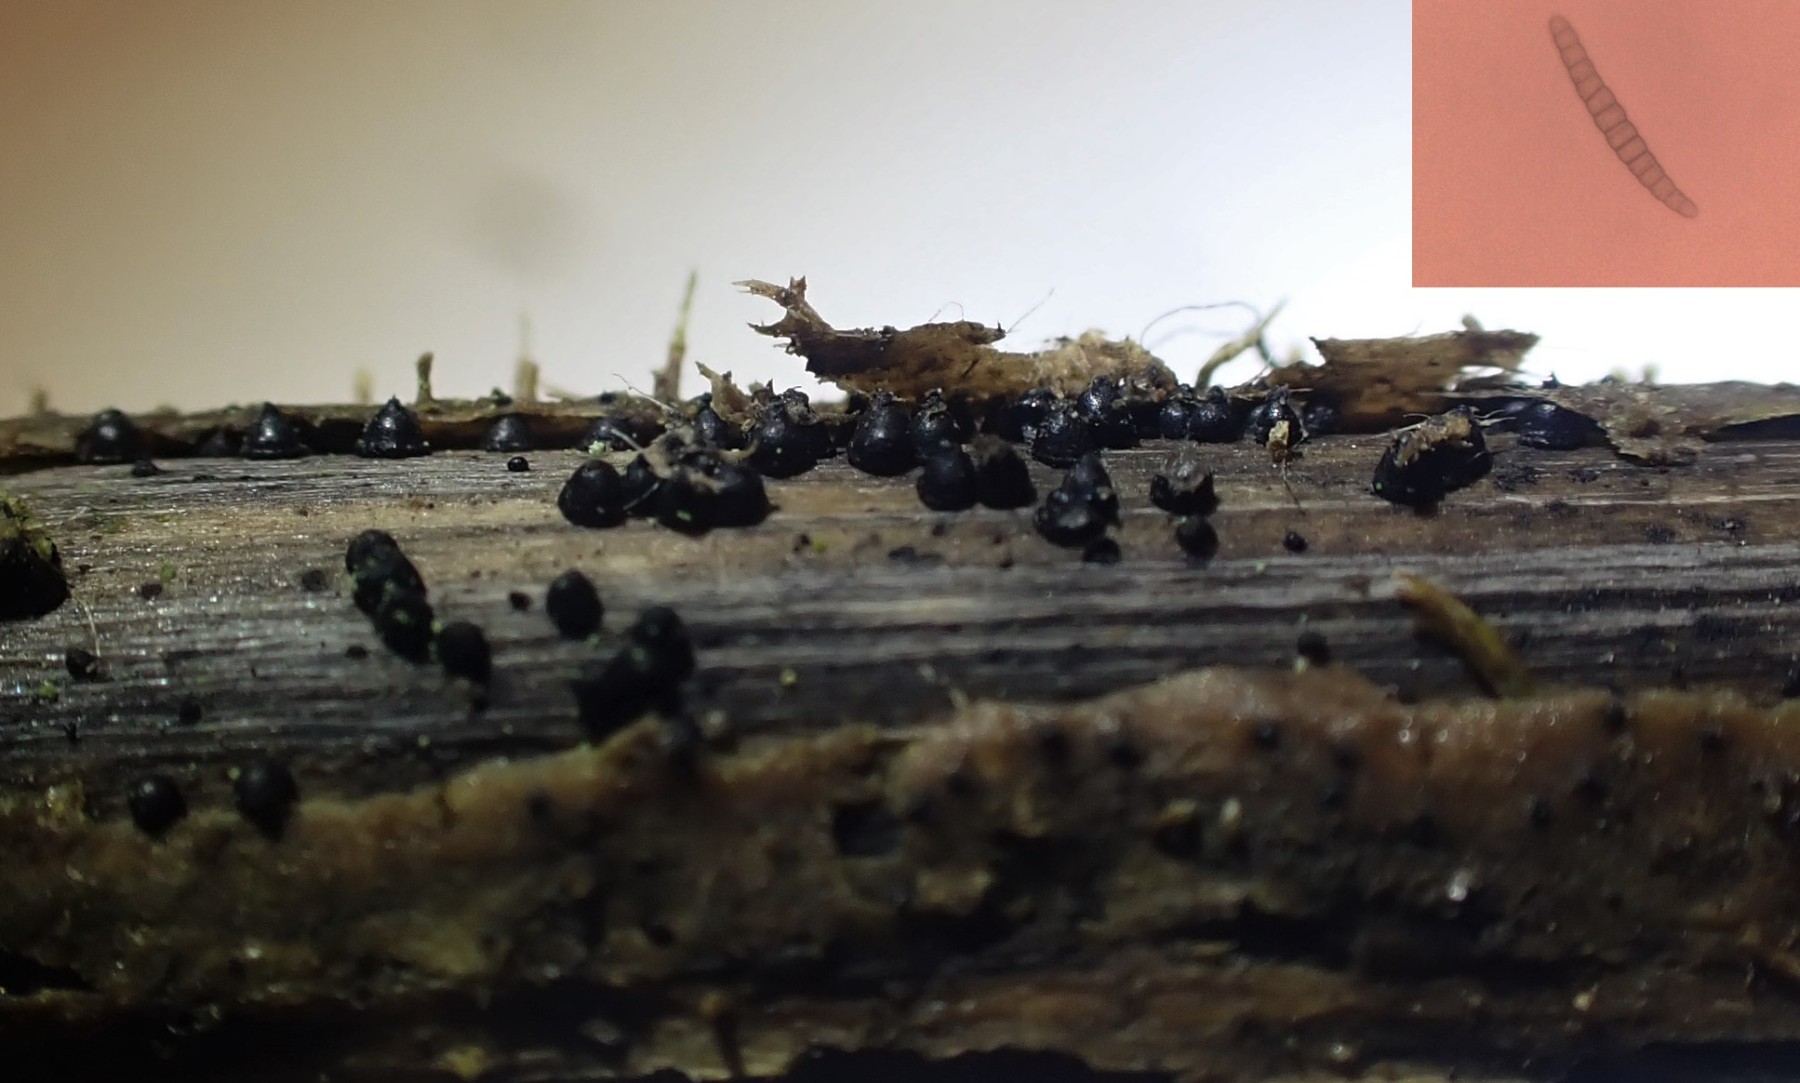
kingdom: Fungi
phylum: Ascomycota
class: Dothideomycetes
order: Pleosporales
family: Leptosphaeriaceae
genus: Leptosphaeria
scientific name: Leptosphaeria acuta
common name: spids kulkegle
